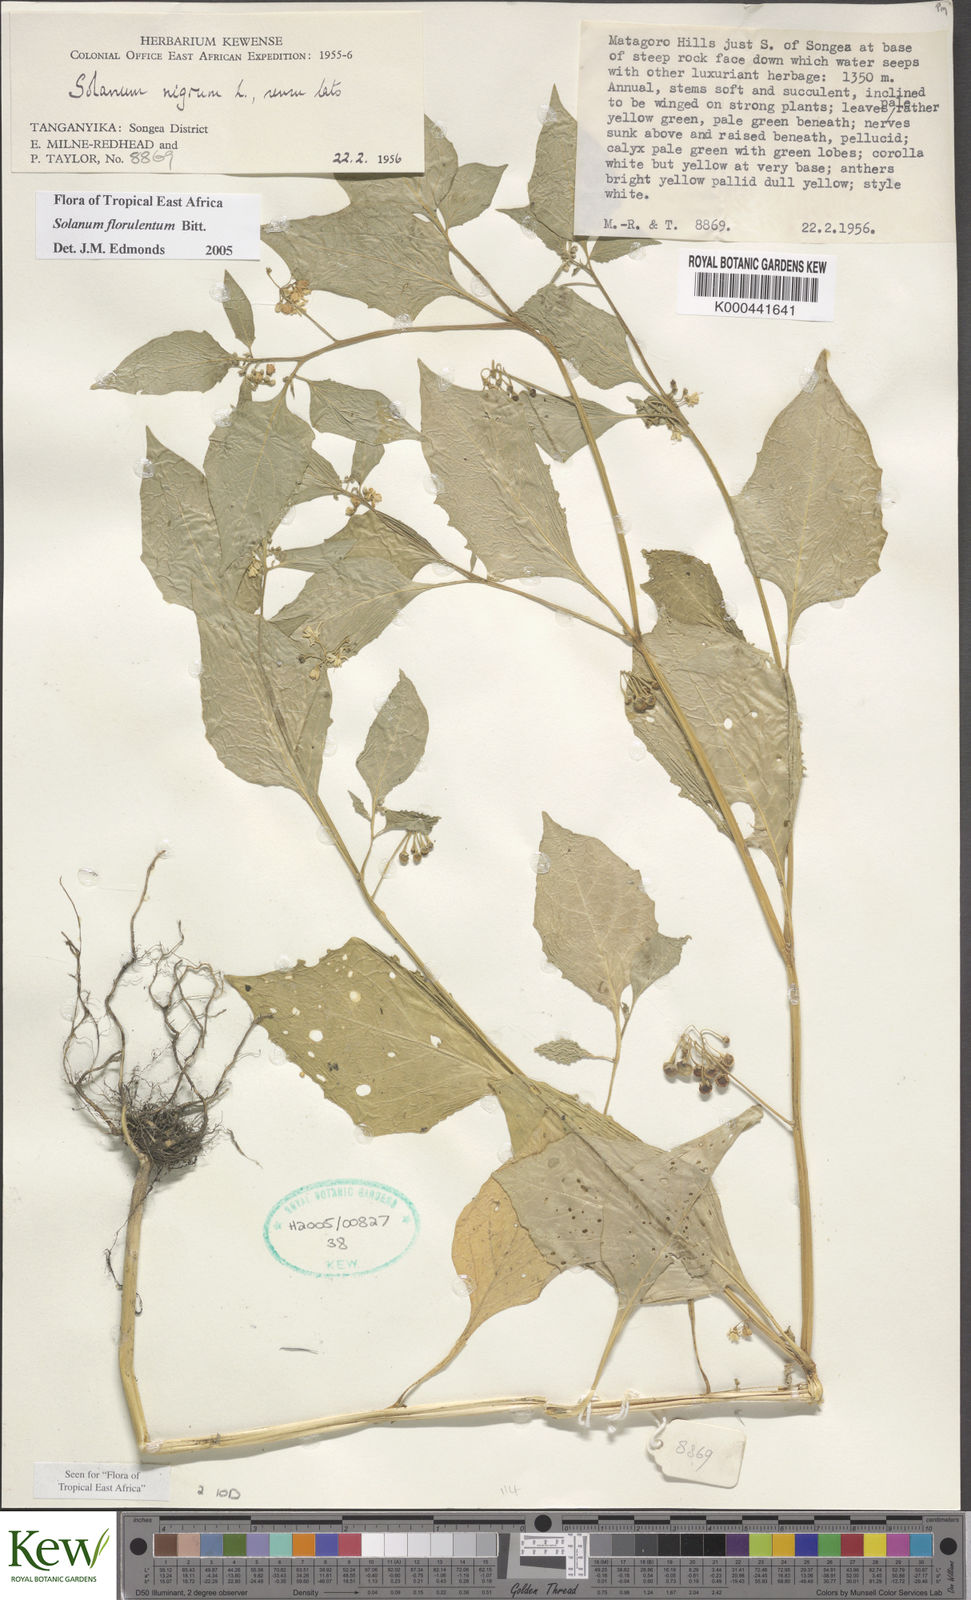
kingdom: Plantae
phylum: Tracheophyta
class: Magnoliopsida
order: Solanales
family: Solanaceae
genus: Solanum
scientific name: Solanum tarderemotum
